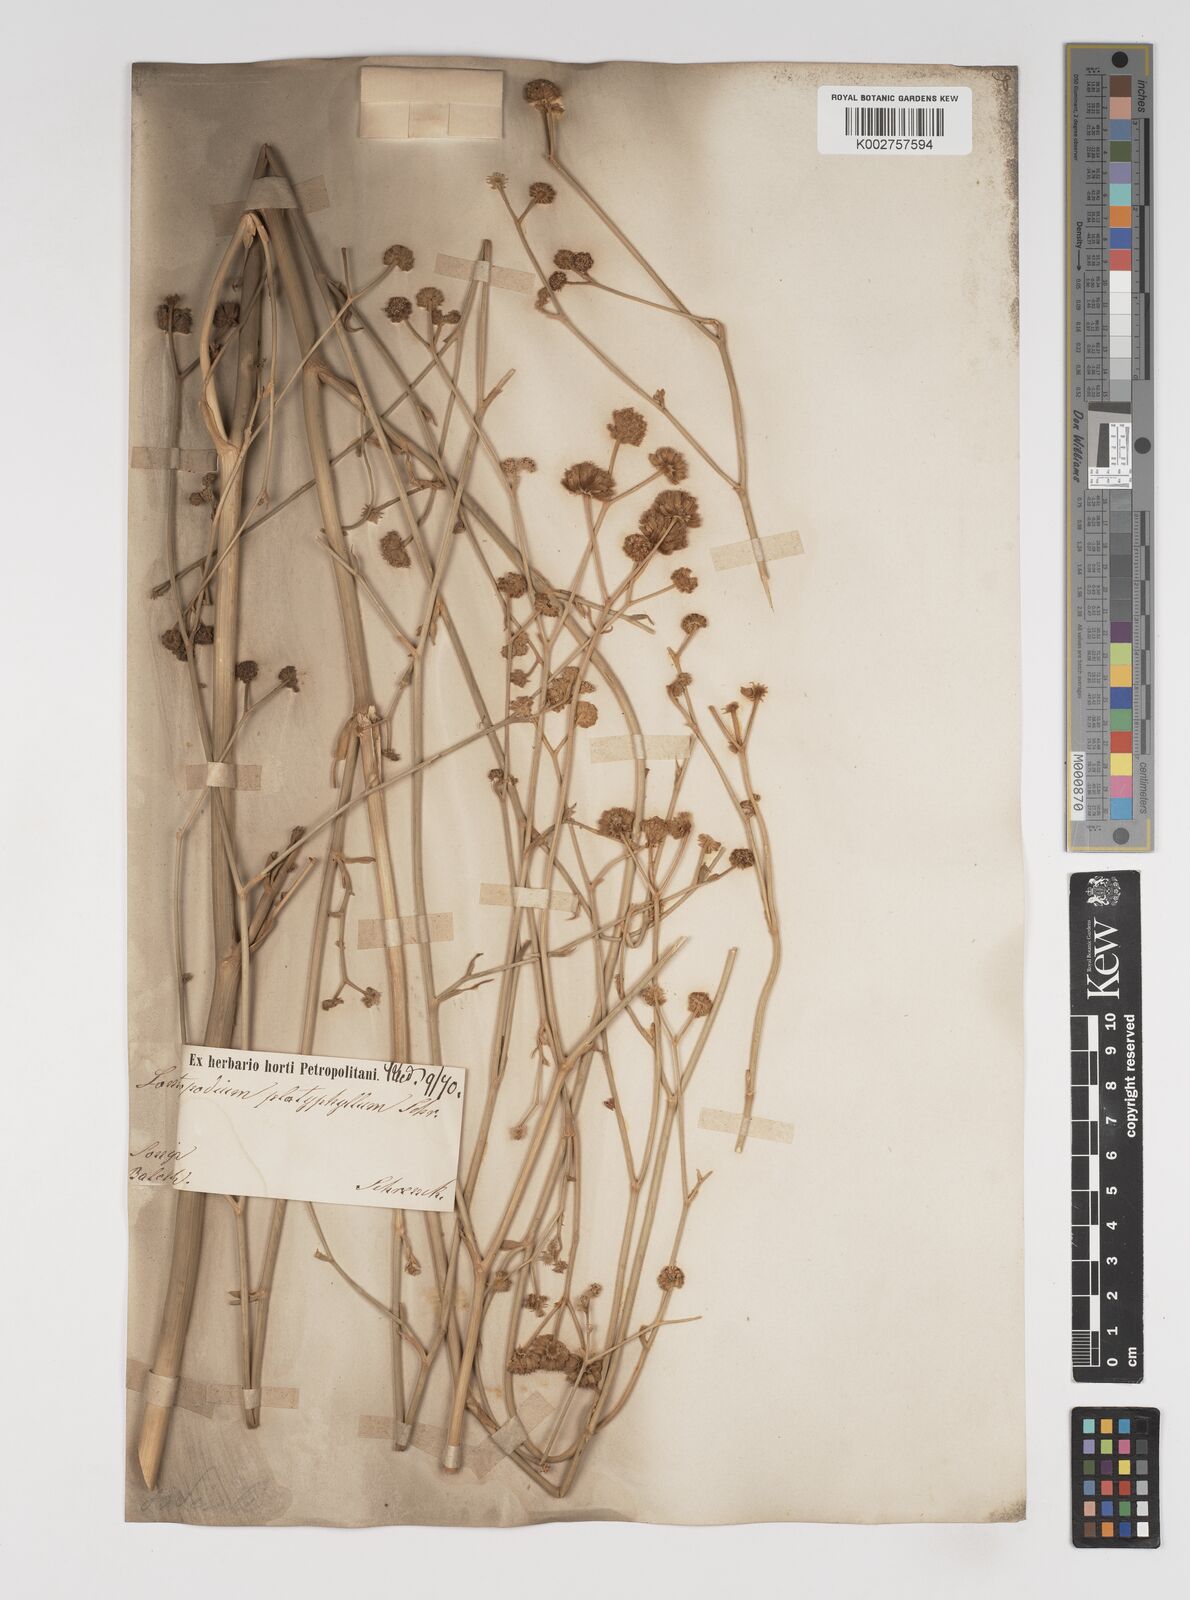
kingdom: Plantae
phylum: Tracheophyta
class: Magnoliopsida
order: Apiales
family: Apiaceae
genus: Seseli
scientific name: Seseli
